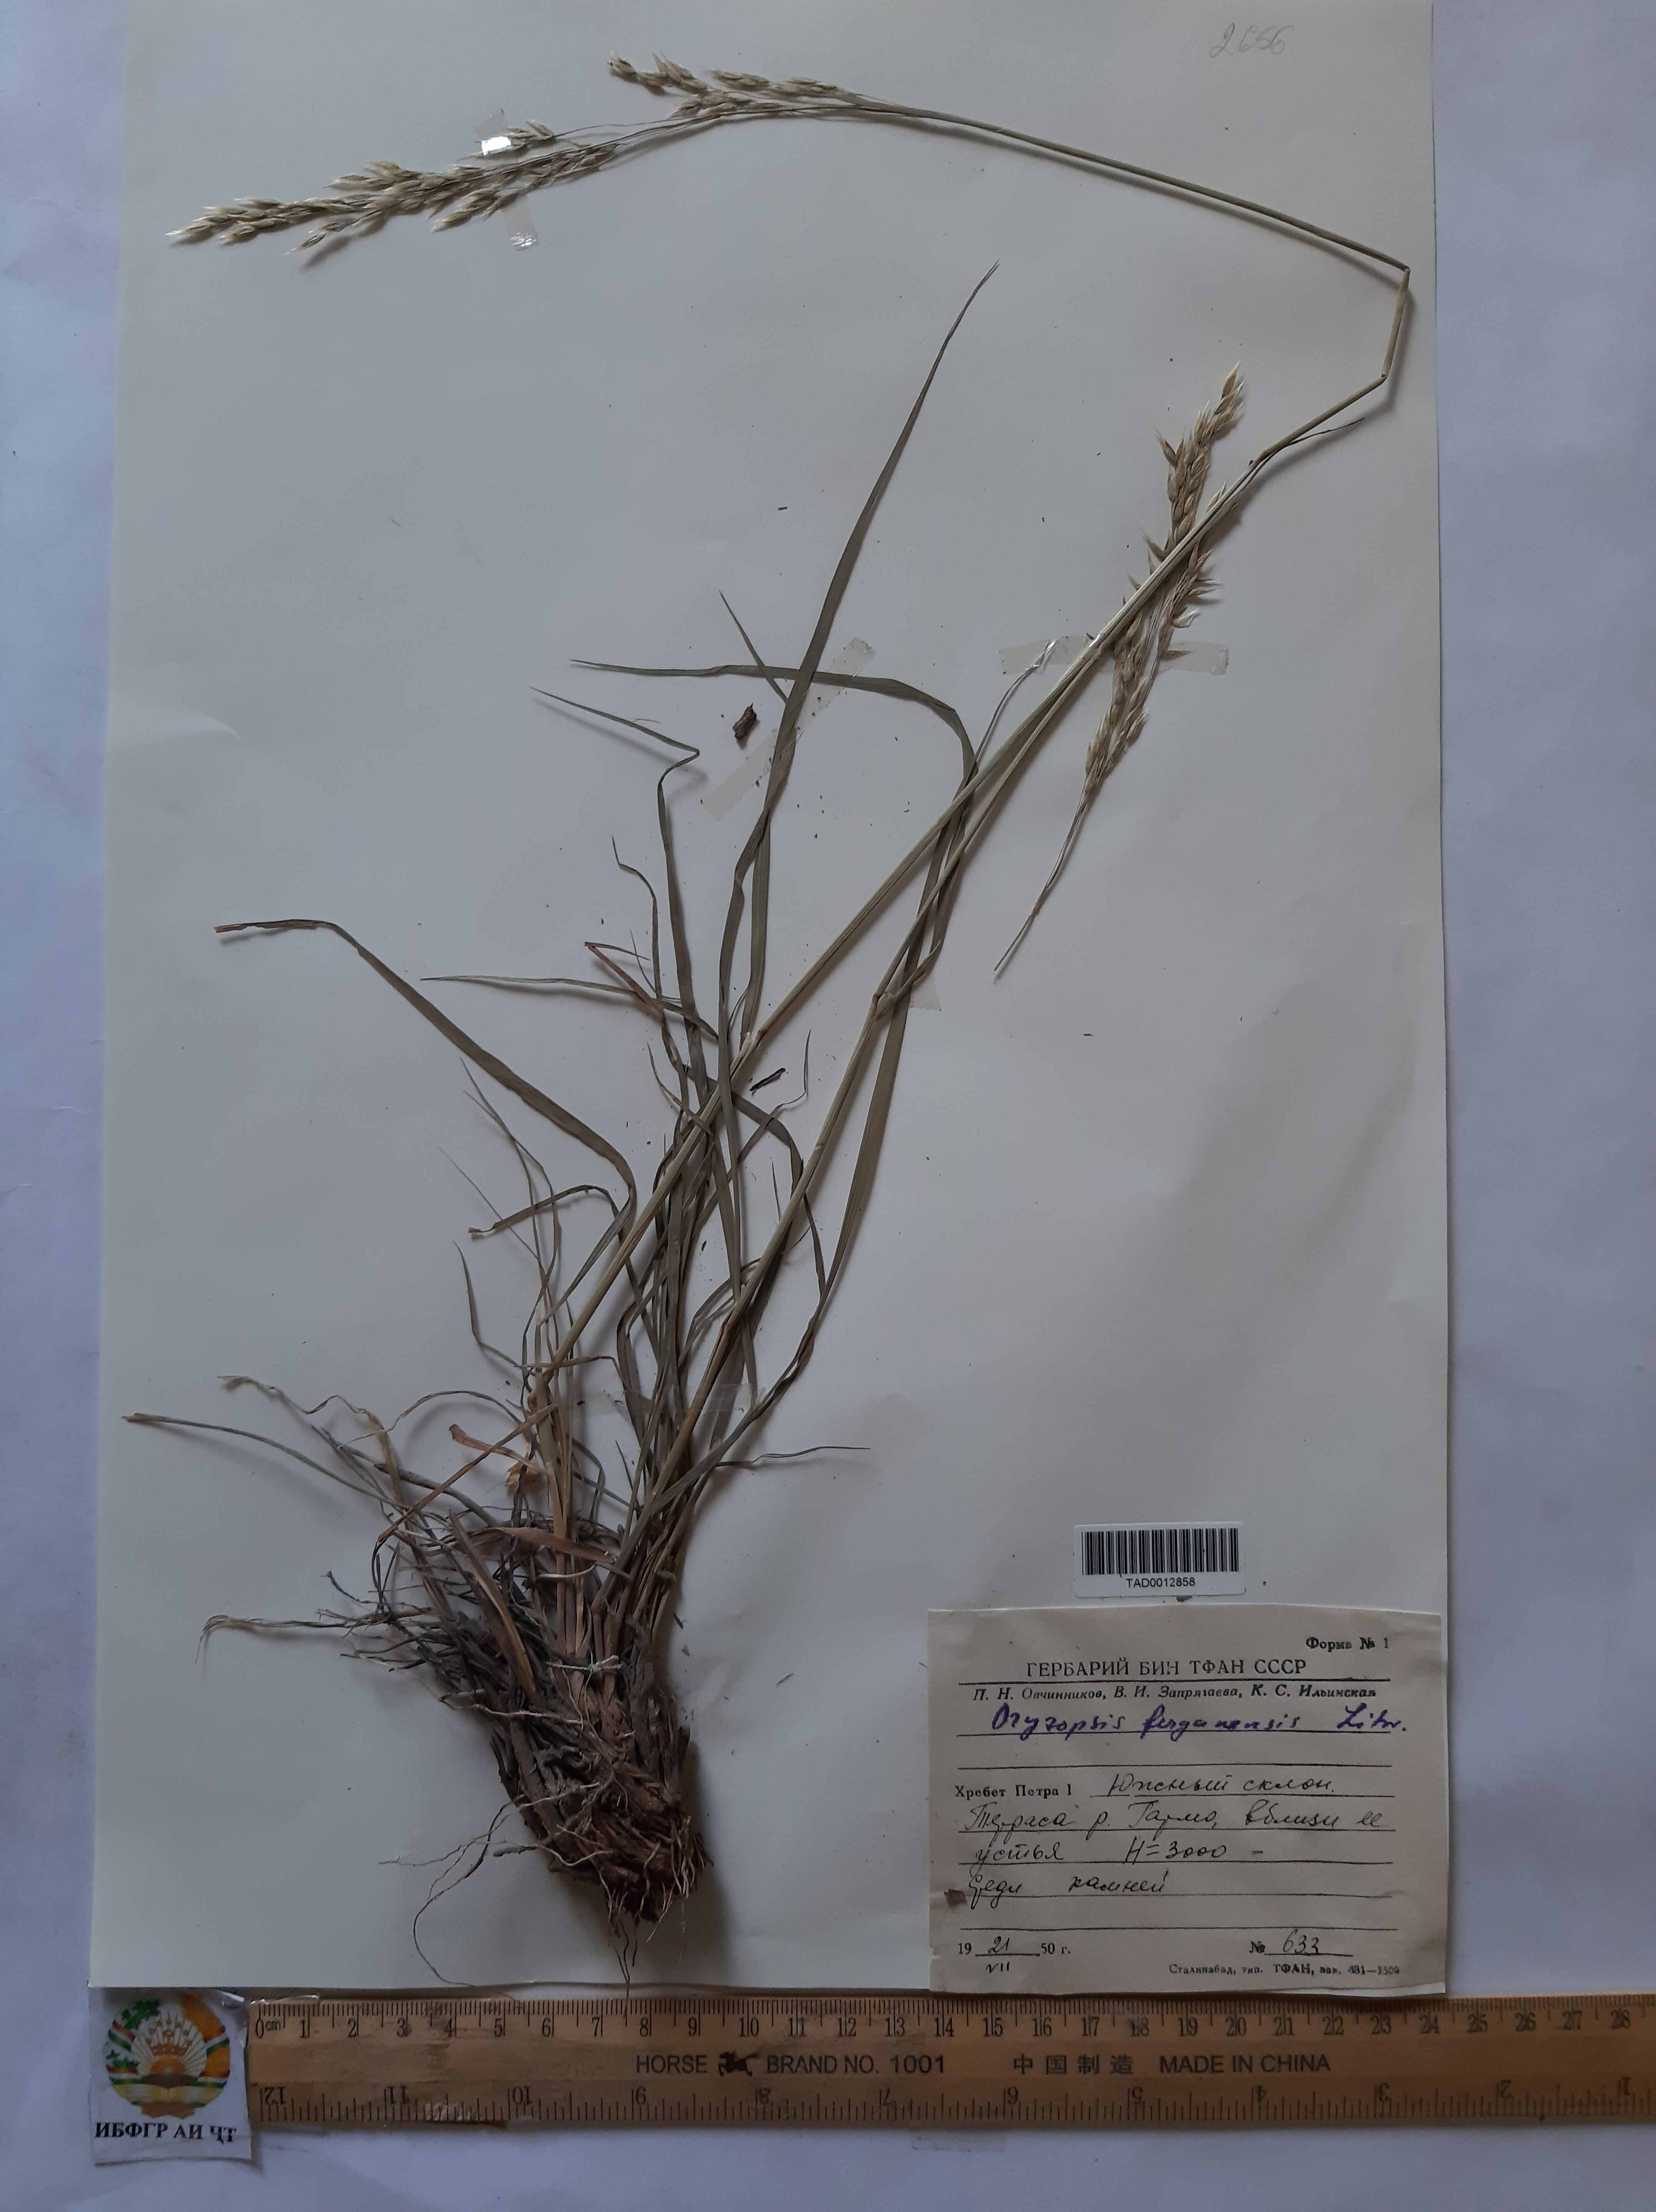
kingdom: Plantae
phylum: Tracheophyta
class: Liliopsida
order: Poales
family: Poaceae
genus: Piptatherum
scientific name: Piptatherum ferganense
